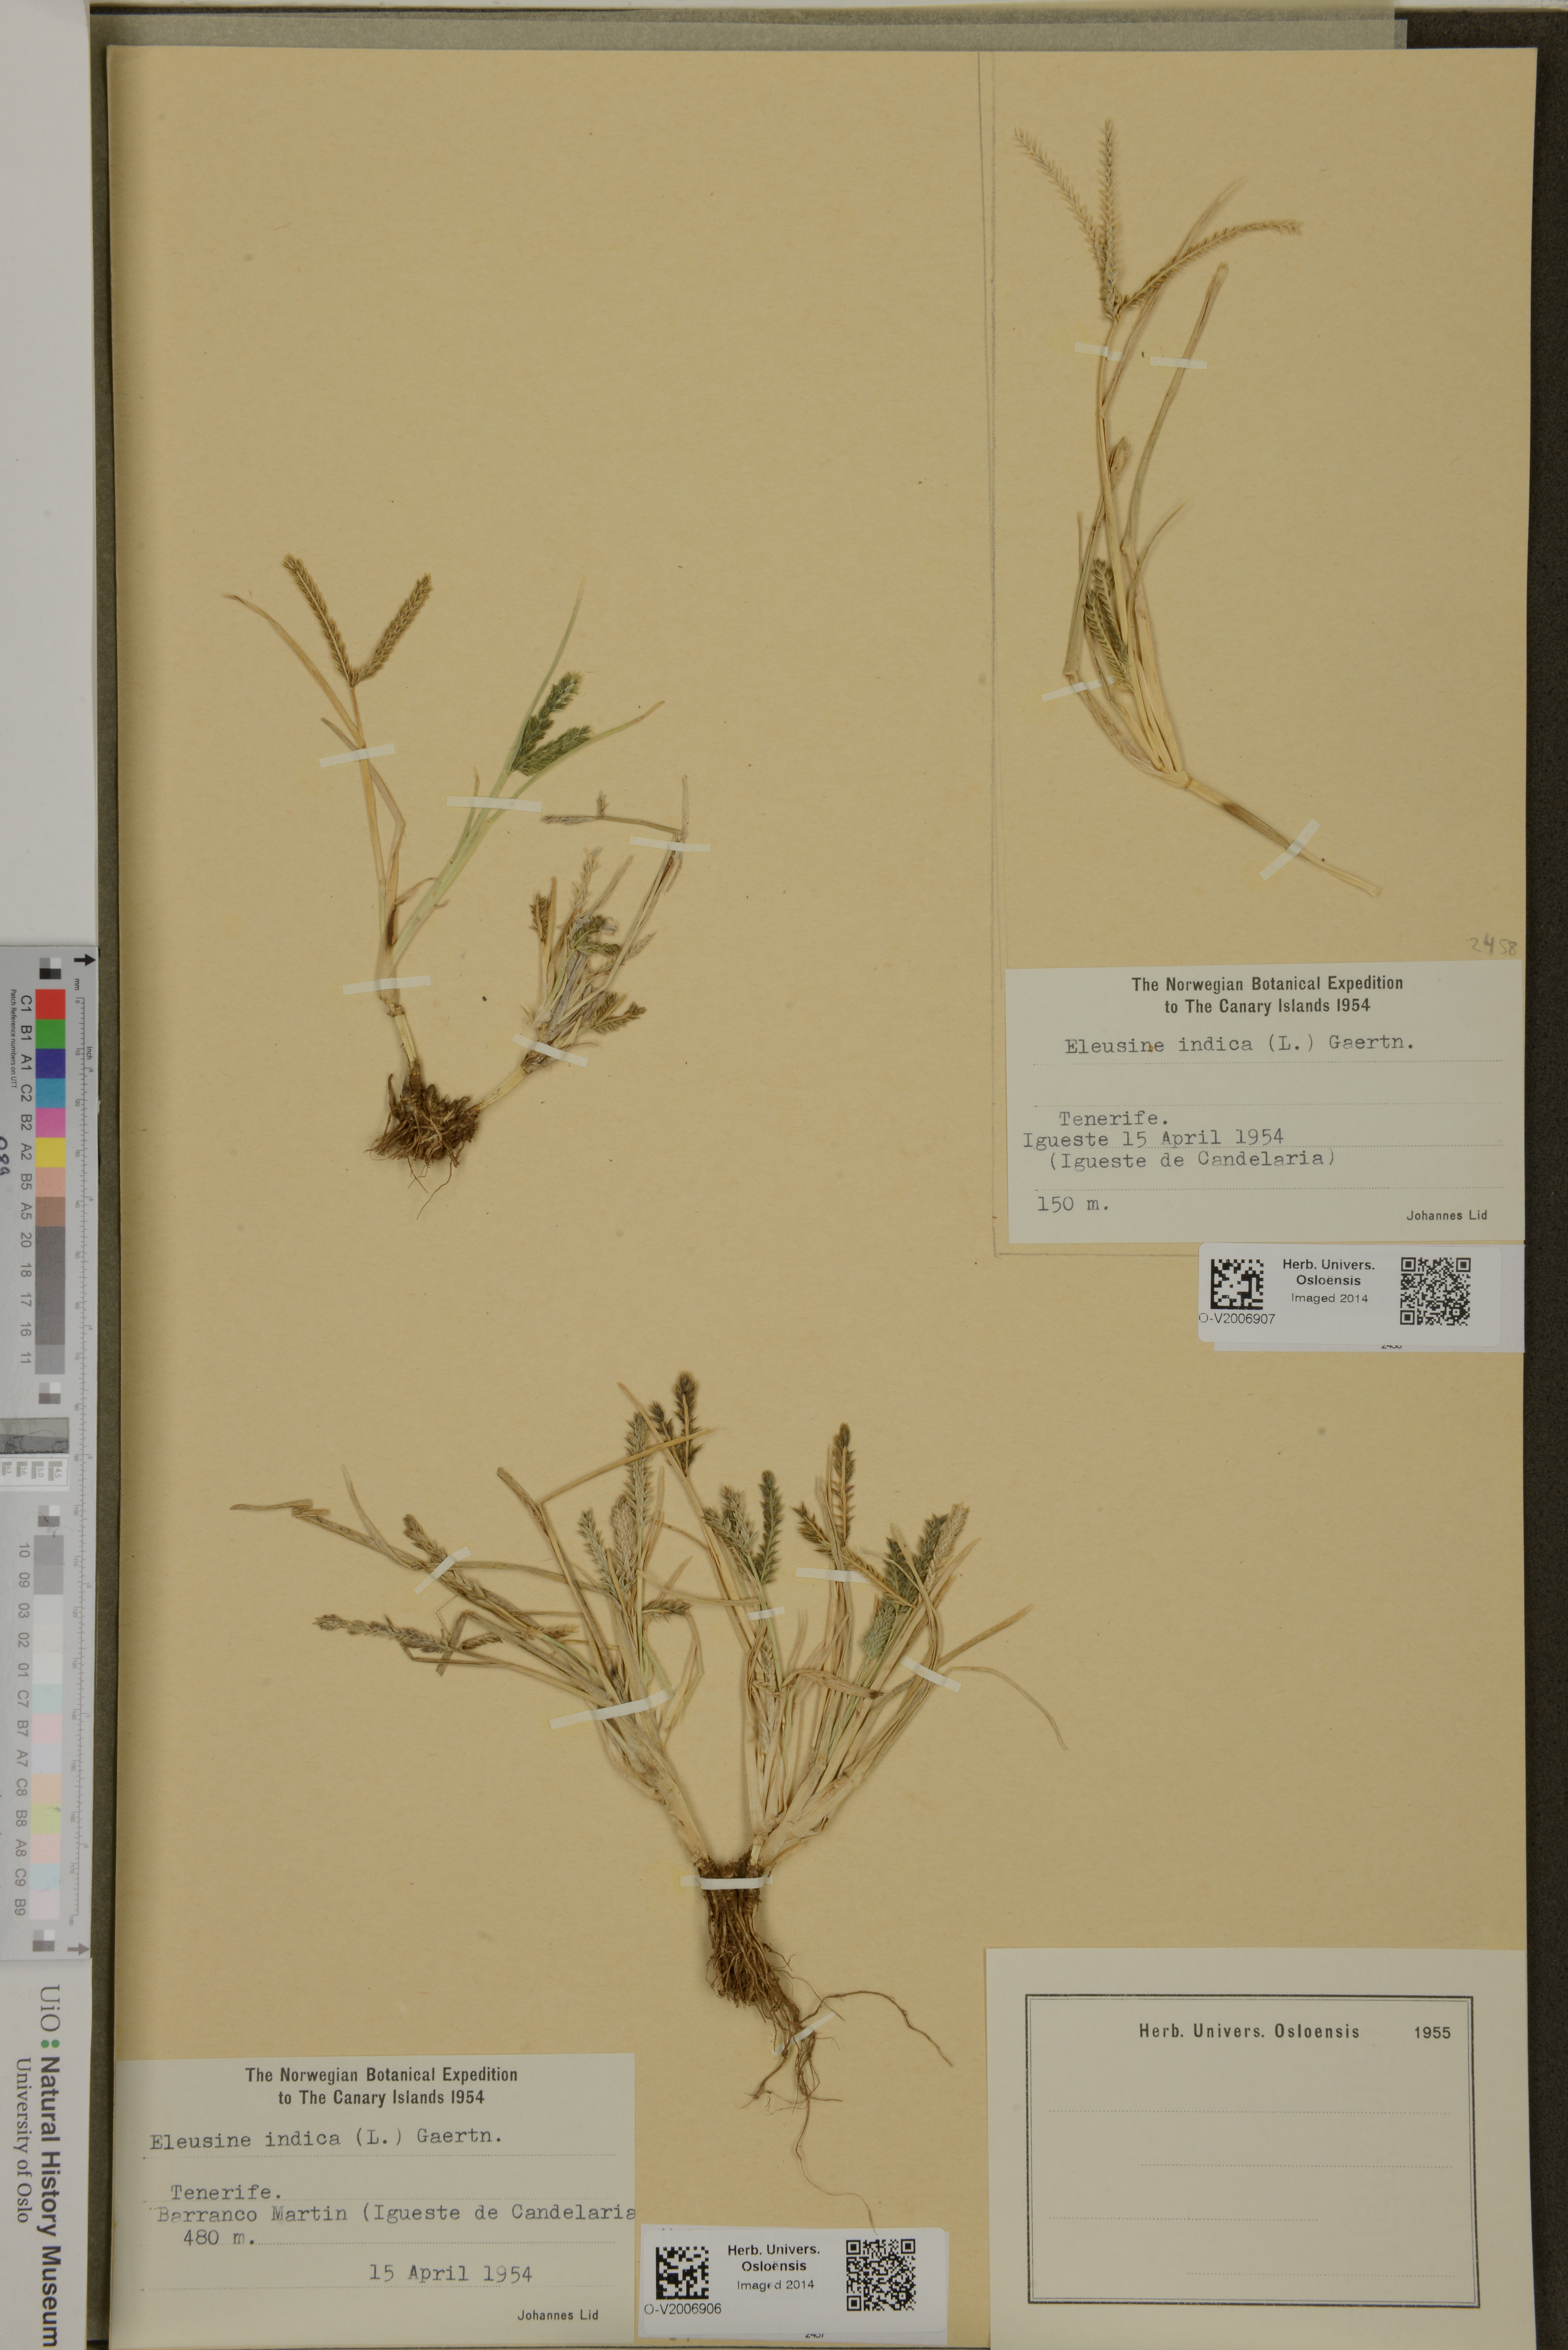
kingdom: Plantae
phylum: Tracheophyta
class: Liliopsida
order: Poales
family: Poaceae
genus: Eleusine
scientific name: Eleusine indica
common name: Yard-grass
